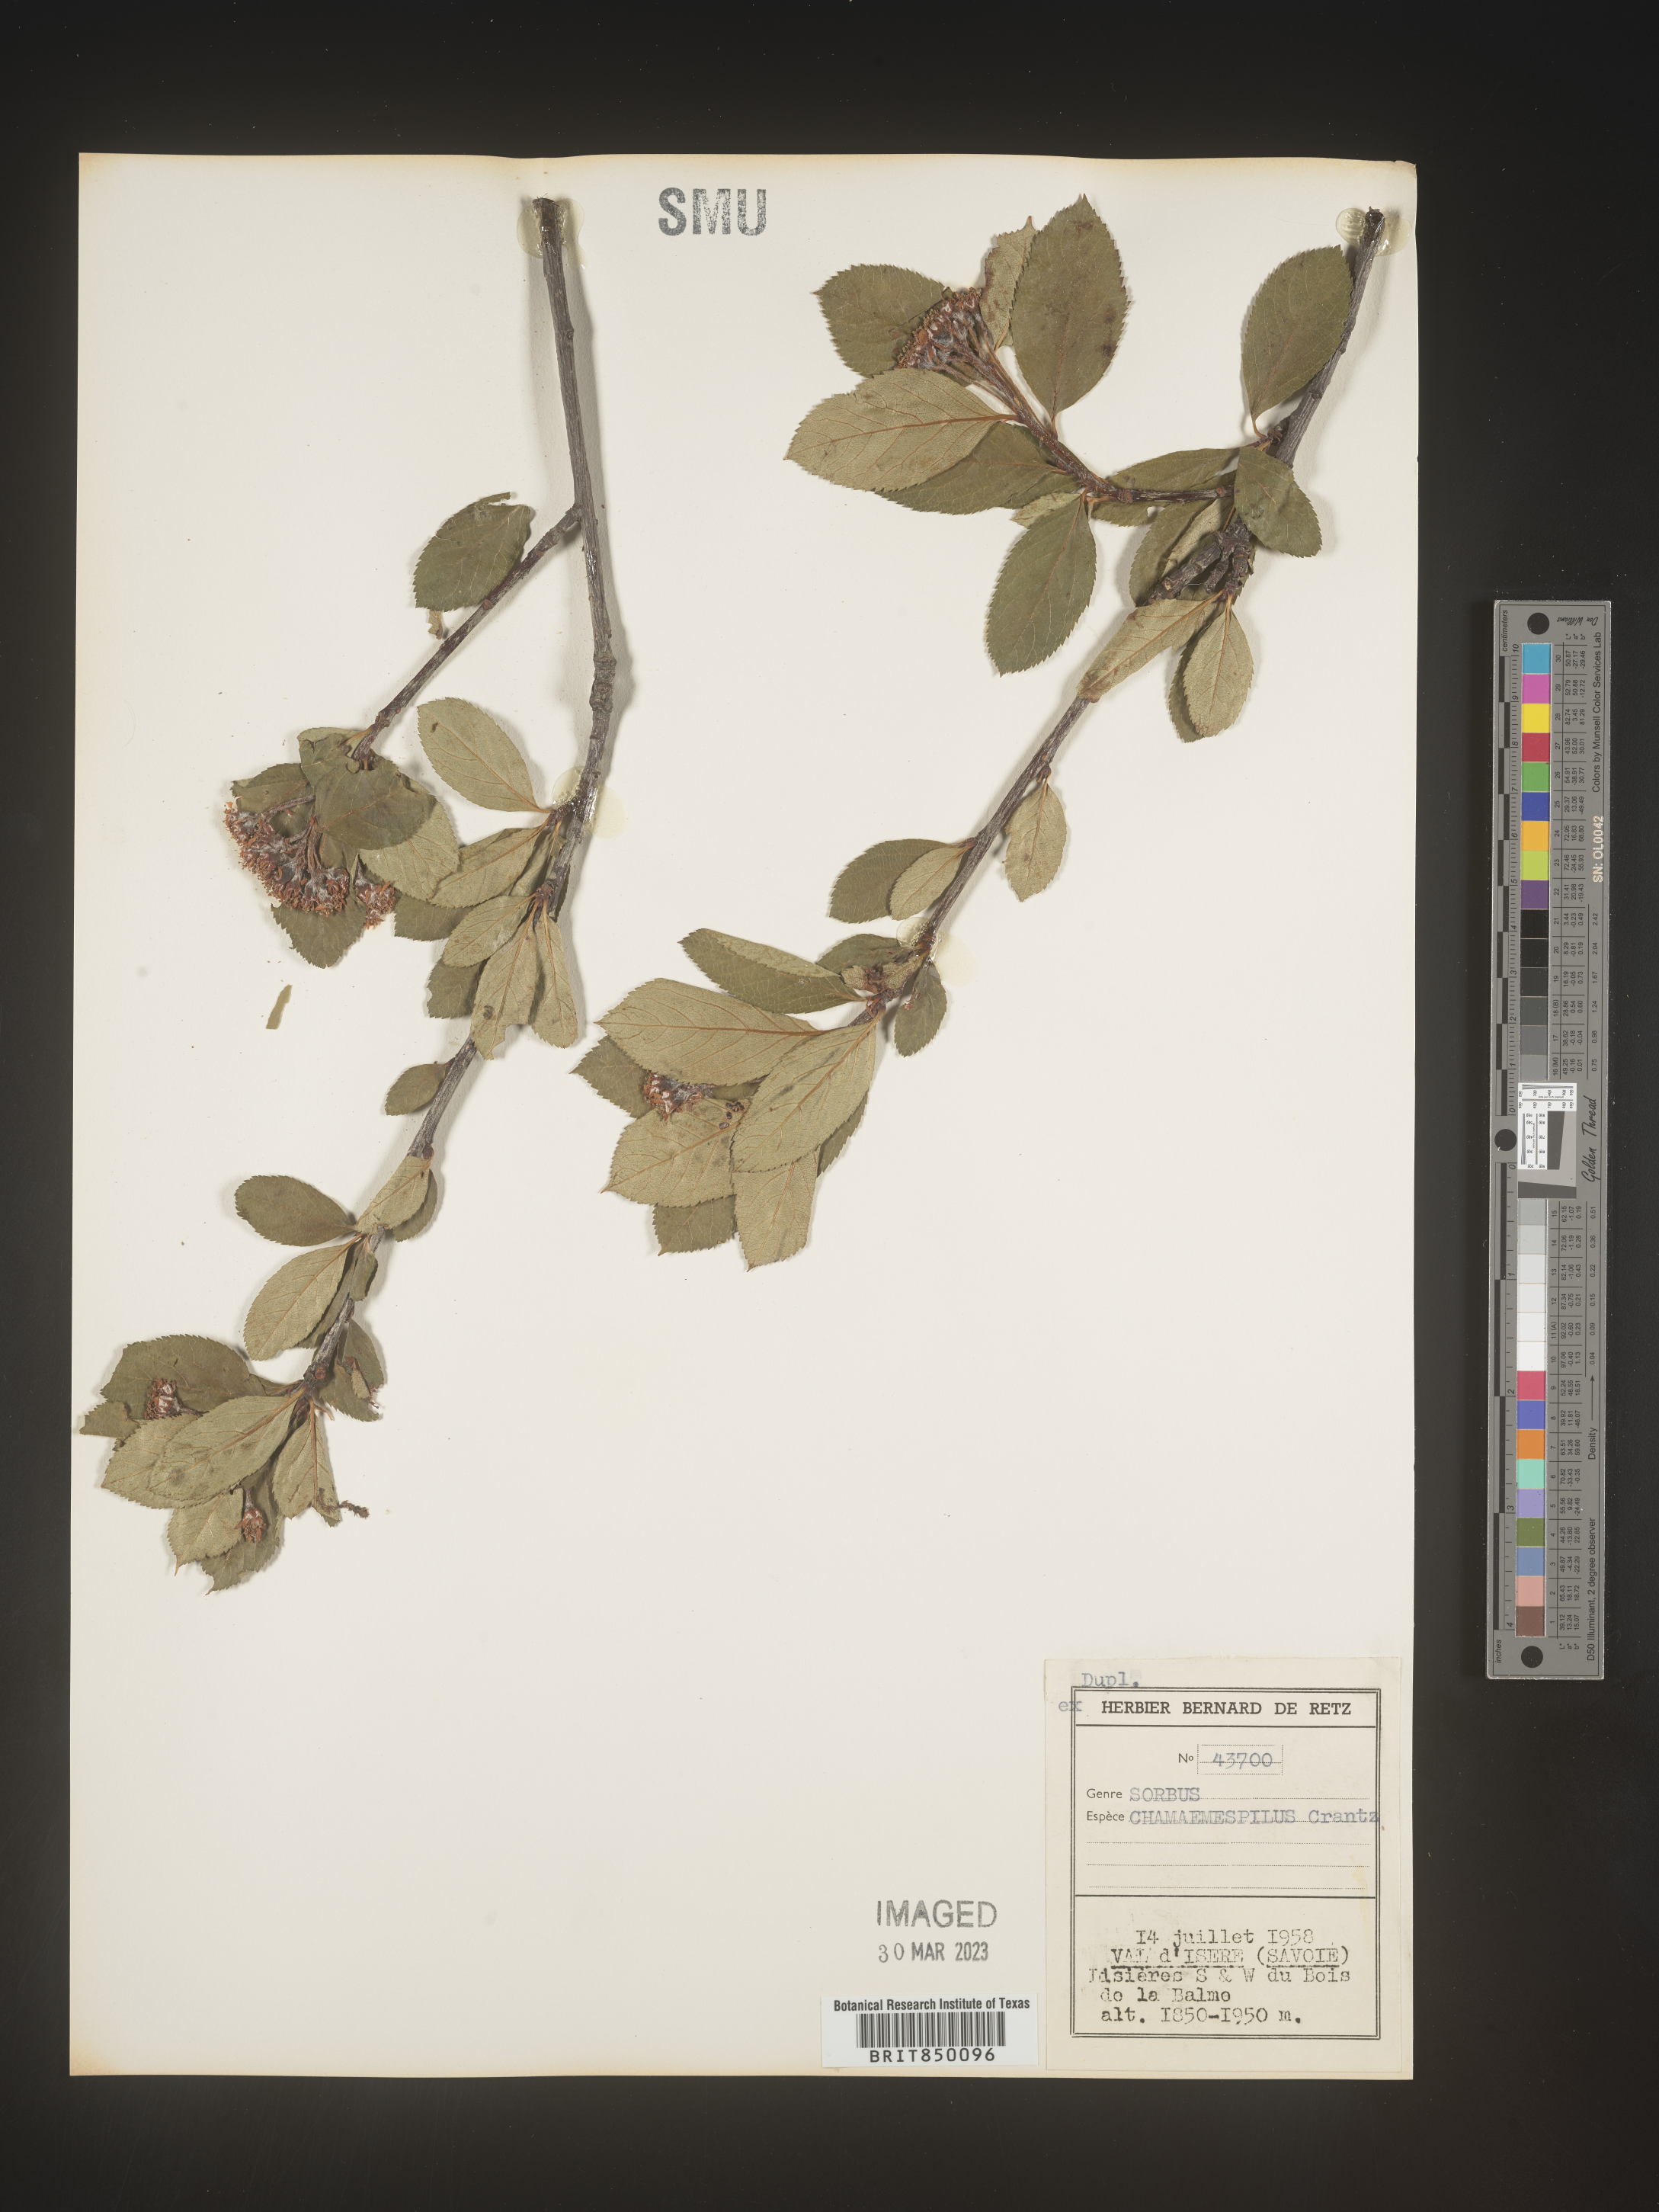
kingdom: Plantae
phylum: Tracheophyta
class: Magnoliopsida
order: Rosales
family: Rosaceae
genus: Sorbus
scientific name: Sorbus
